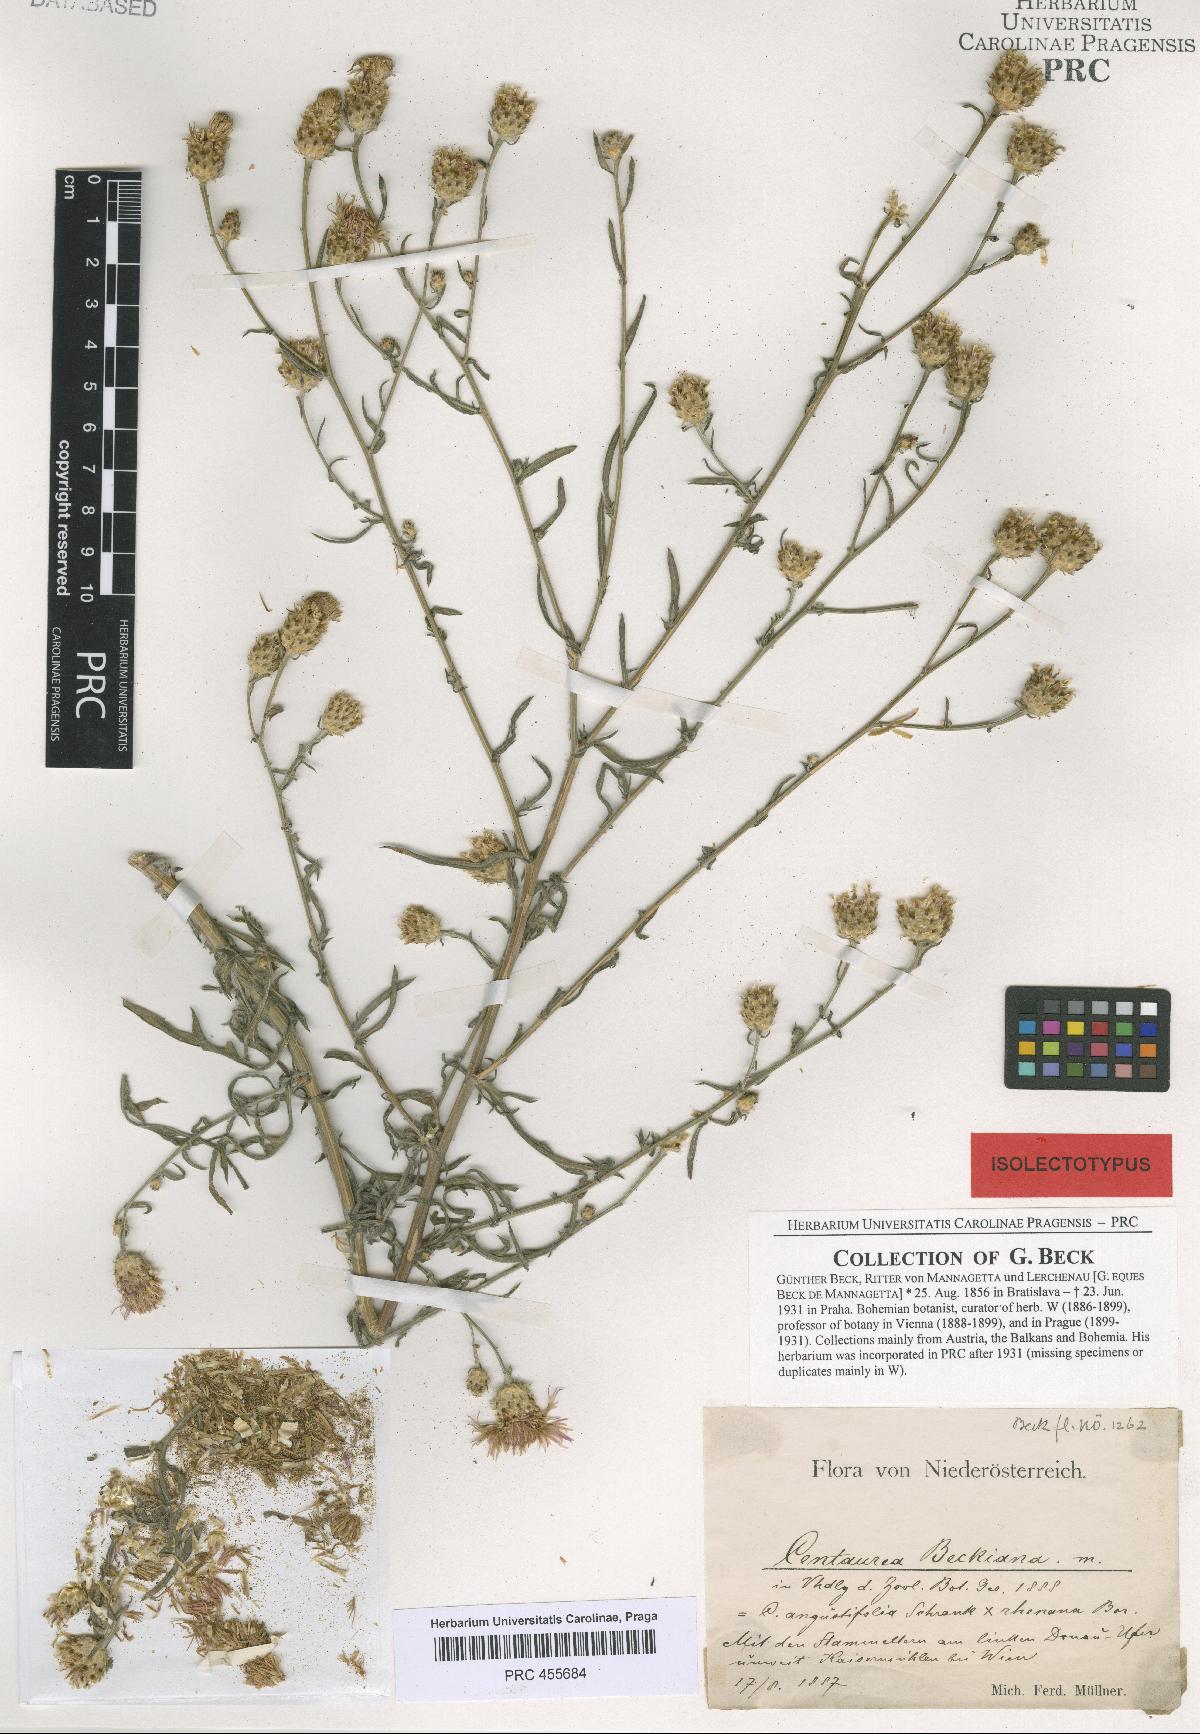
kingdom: Plantae
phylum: Tracheophyta
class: Magnoliopsida
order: Asterales
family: Asteraceae
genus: Centaurea
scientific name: Centaurea beckiana
